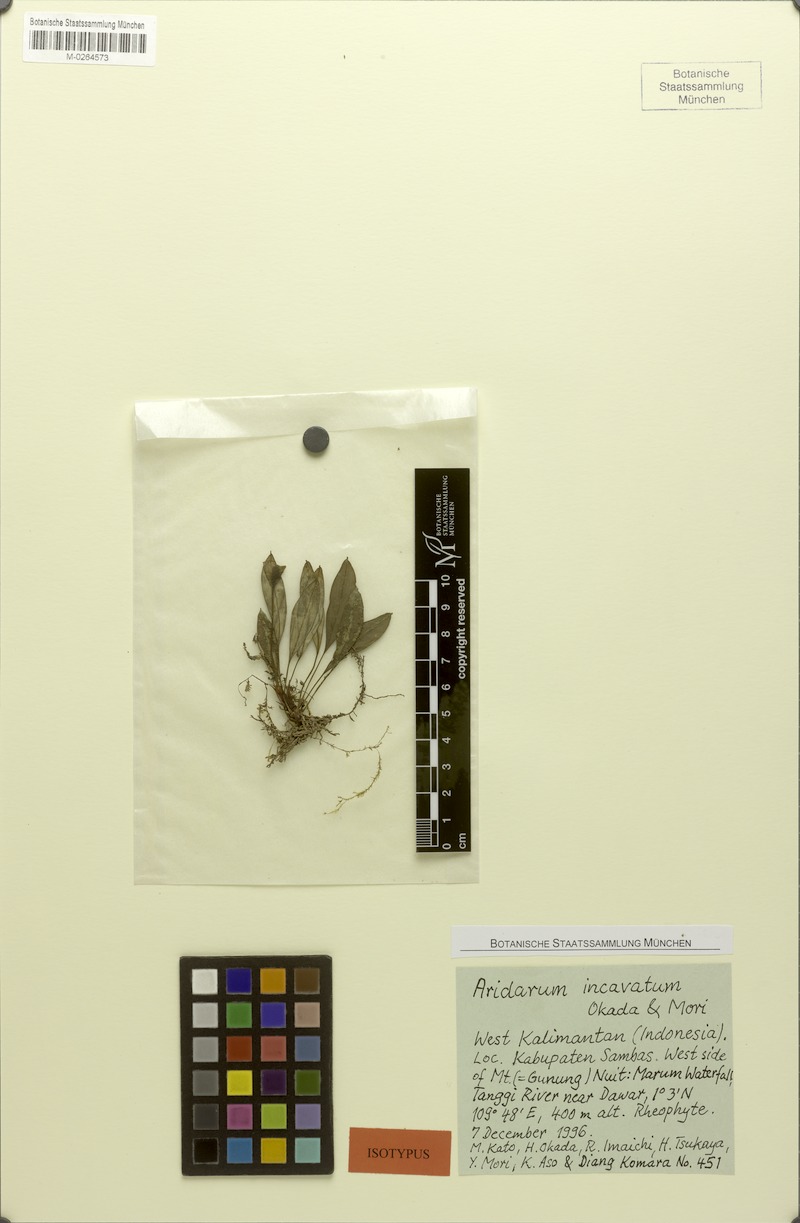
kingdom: Plantae
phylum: Tracheophyta
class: Liliopsida
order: Alismatales
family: Araceae
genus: Aridarum
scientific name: Aridarum incavatum
